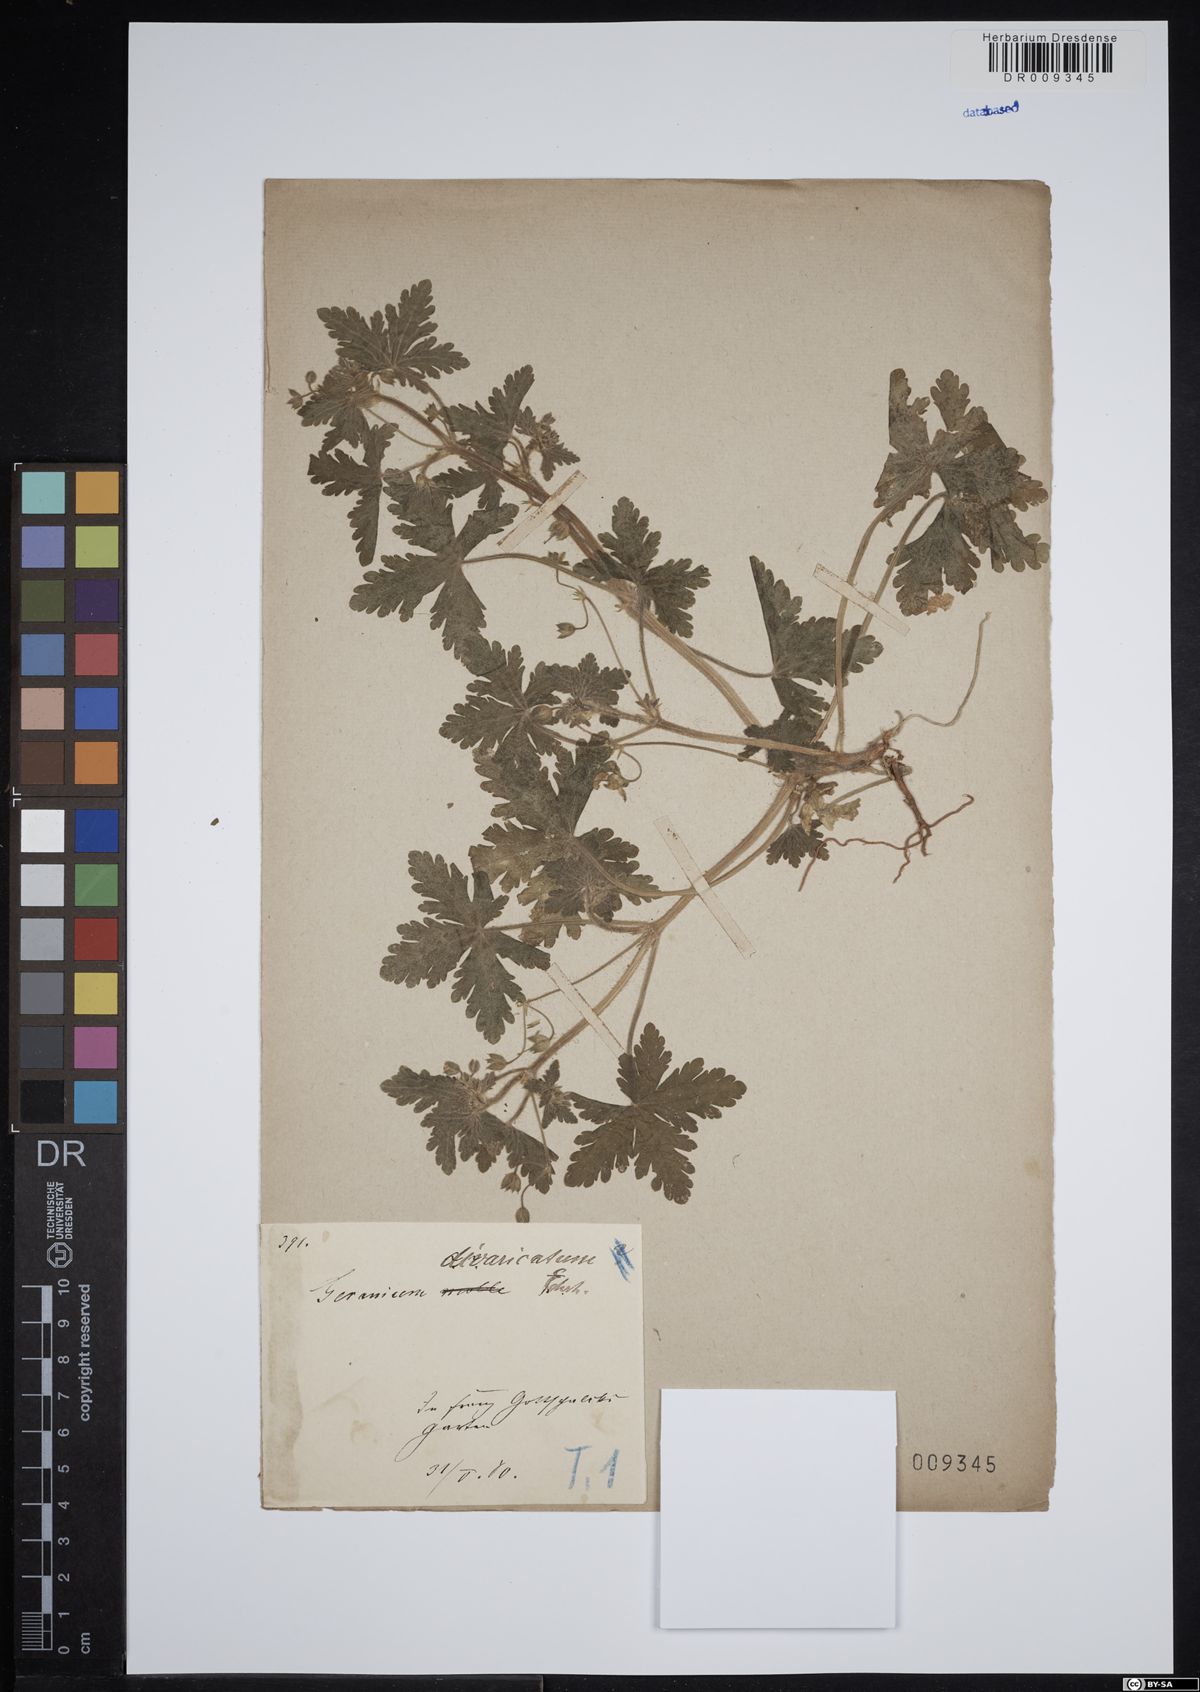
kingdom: Plantae
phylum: Tracheophyta
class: Magnoliopsida
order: Geraniales
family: Geraniaceae
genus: Geranium
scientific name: Geranium divaricatum
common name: Spreading crane's-bill
